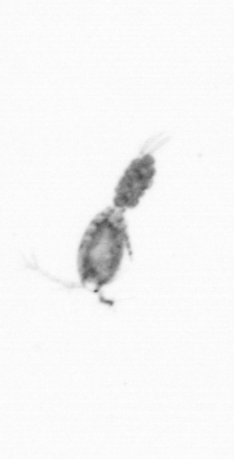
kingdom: Animalia
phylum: Arthropoda
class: Copepoda
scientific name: Copepoda
